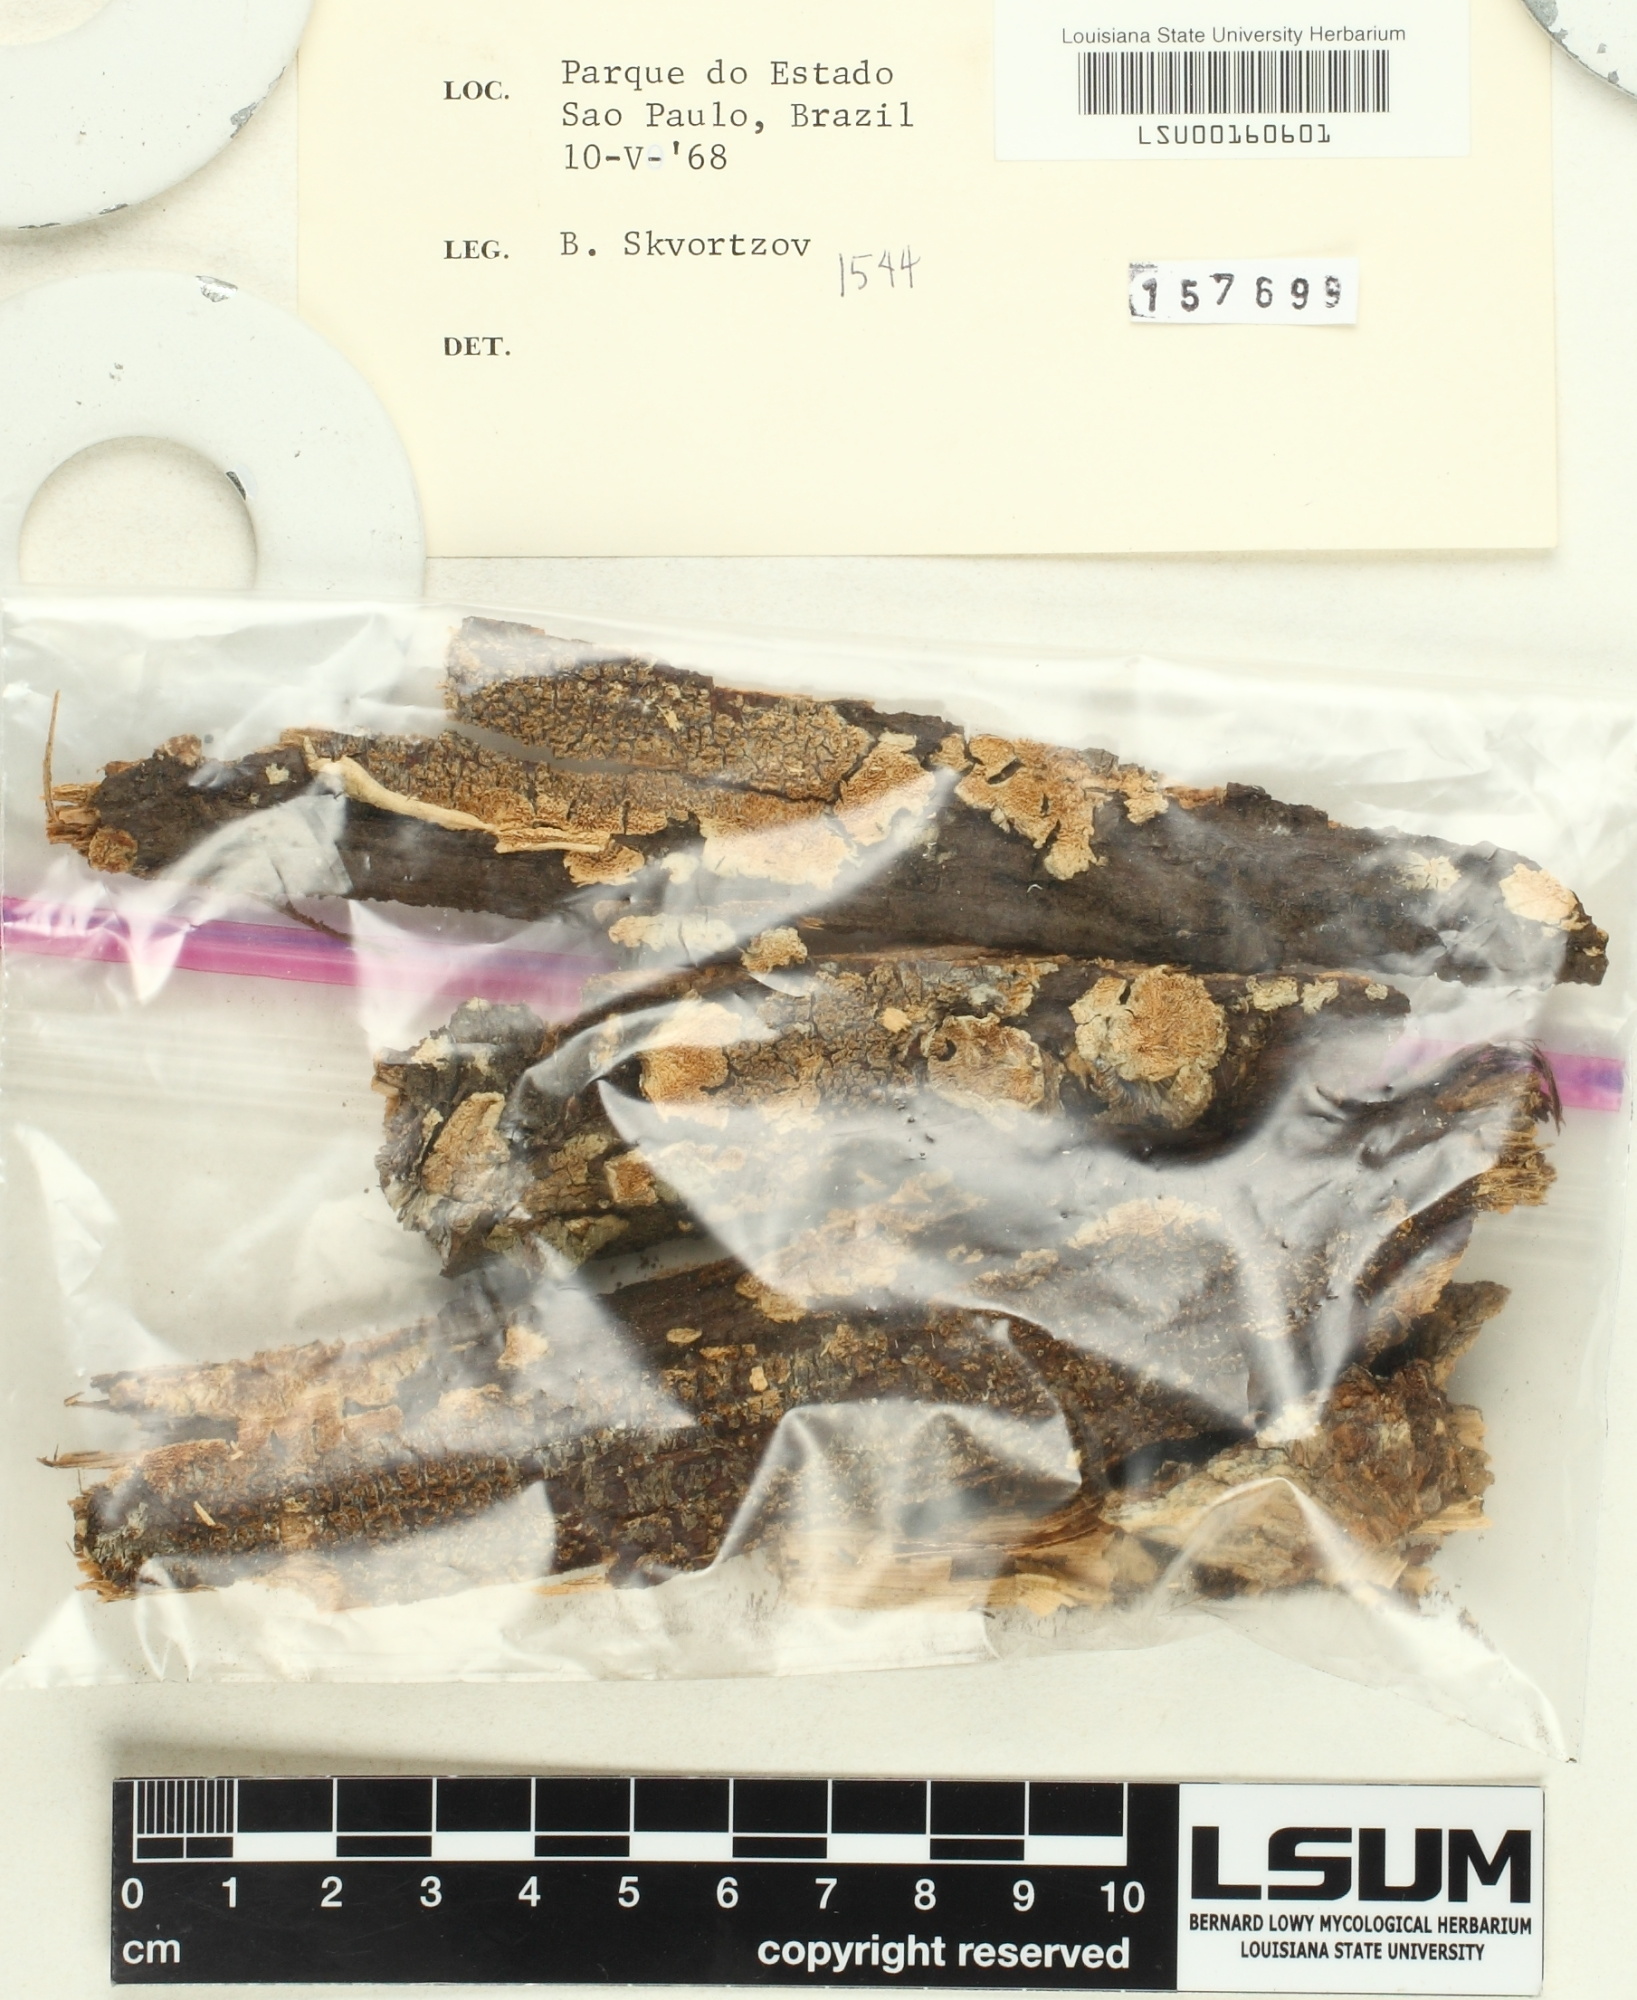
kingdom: Fungi
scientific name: Fungi
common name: Fungi
